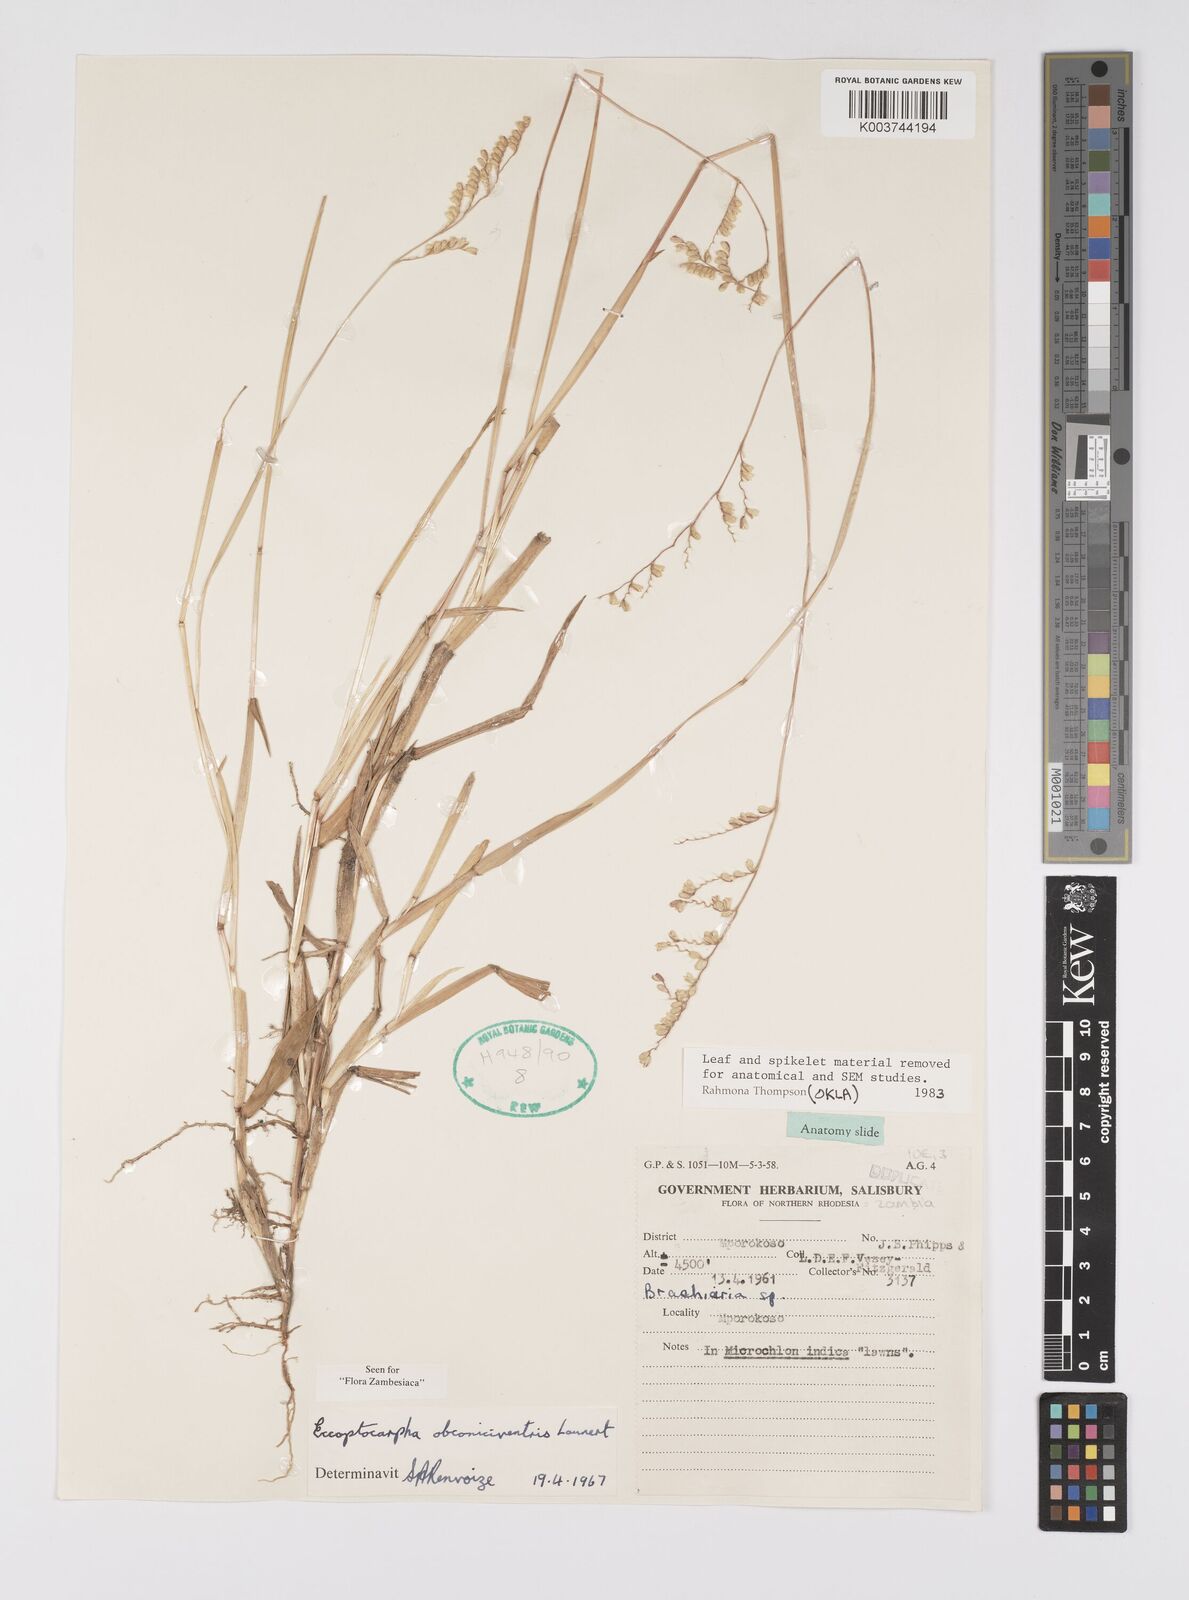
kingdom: Plantae
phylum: Tracheophyta
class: Liliopsida
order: Poales
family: Poaceae
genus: Eccoptocarpha
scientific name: Eccoptocarpha obconiciventris
